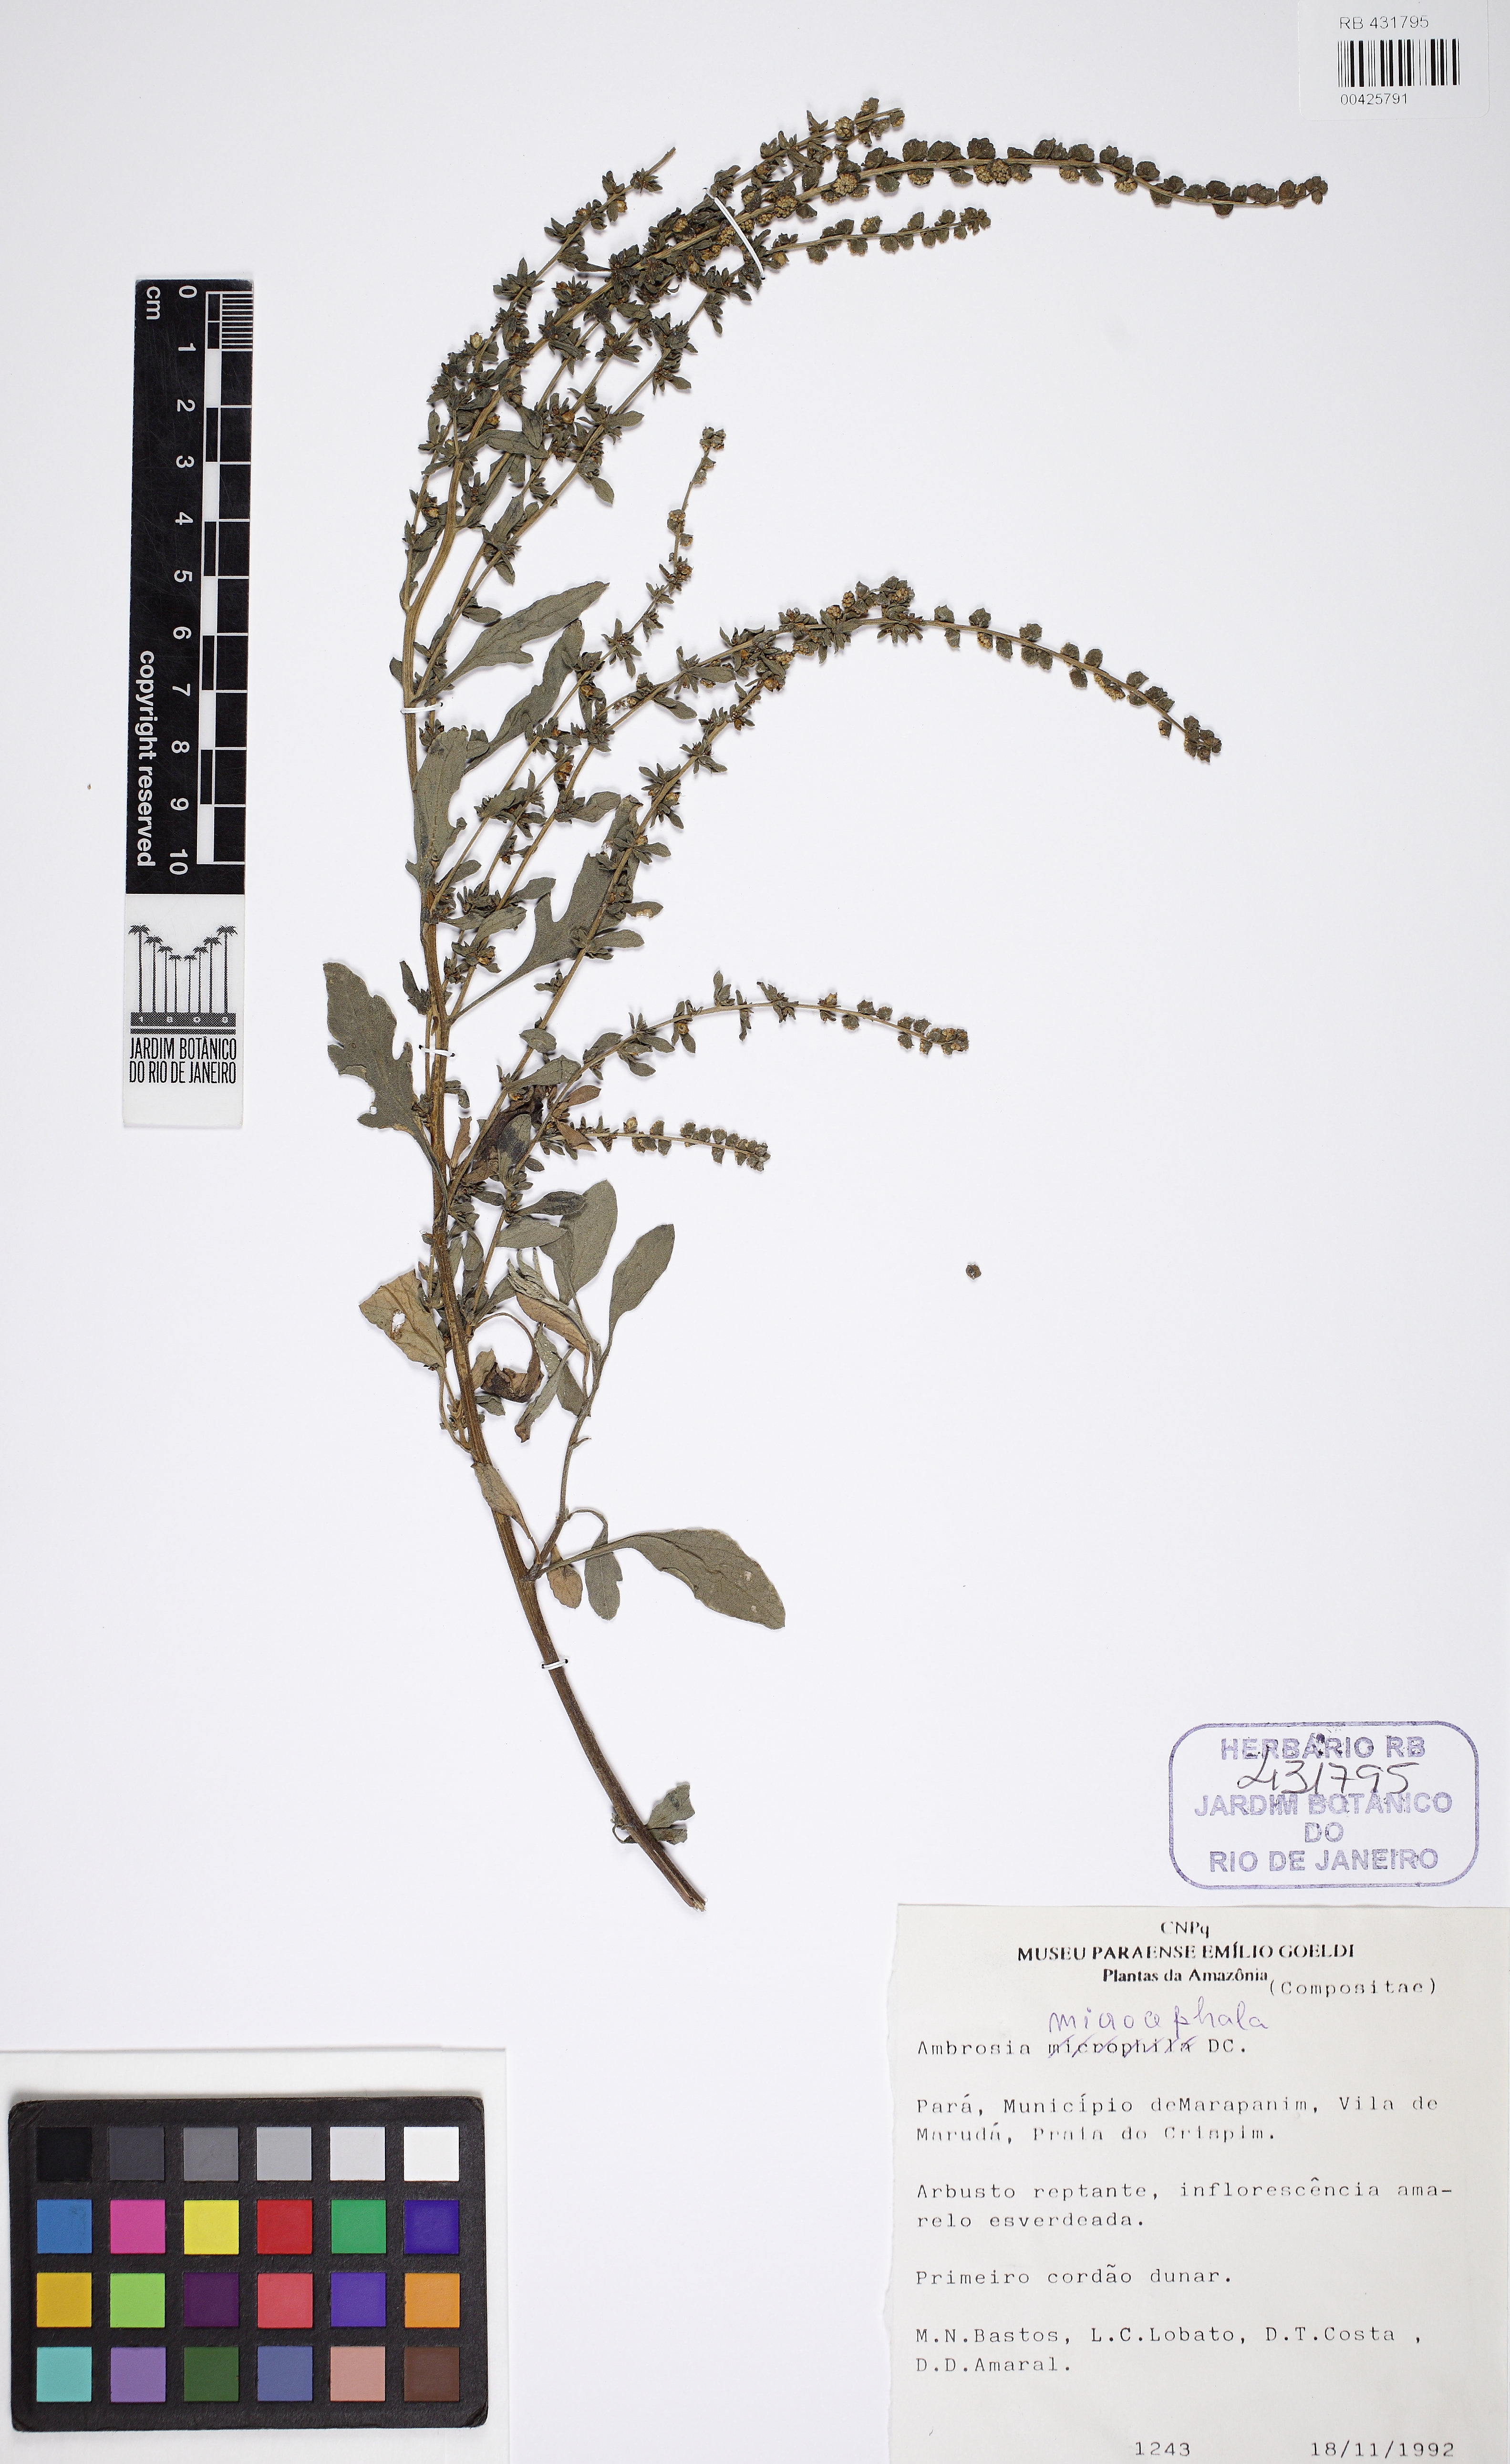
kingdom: Plantae
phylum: Tracheophyta
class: Magnoliopsida
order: Asterales
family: Asteraceae
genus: Ambrosia
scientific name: Ambrosia microcephala
